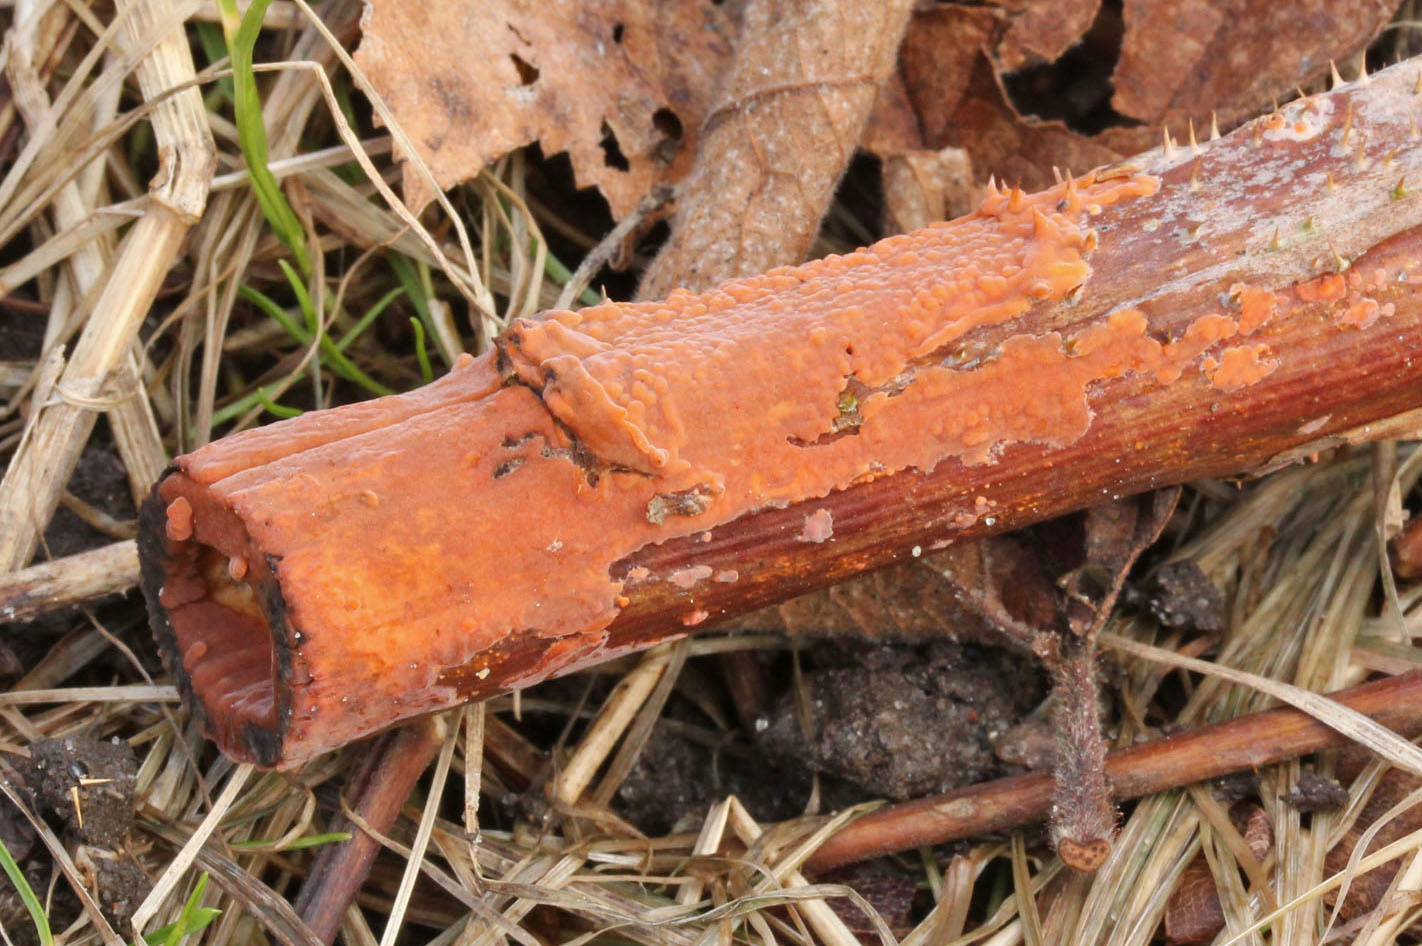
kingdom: Fungi
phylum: Basidiomycota
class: Agaricomycetes
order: Russulales
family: Peniophoraceae
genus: Peniophora
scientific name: Peniophora incarnata
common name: laksefarvet voksskind
